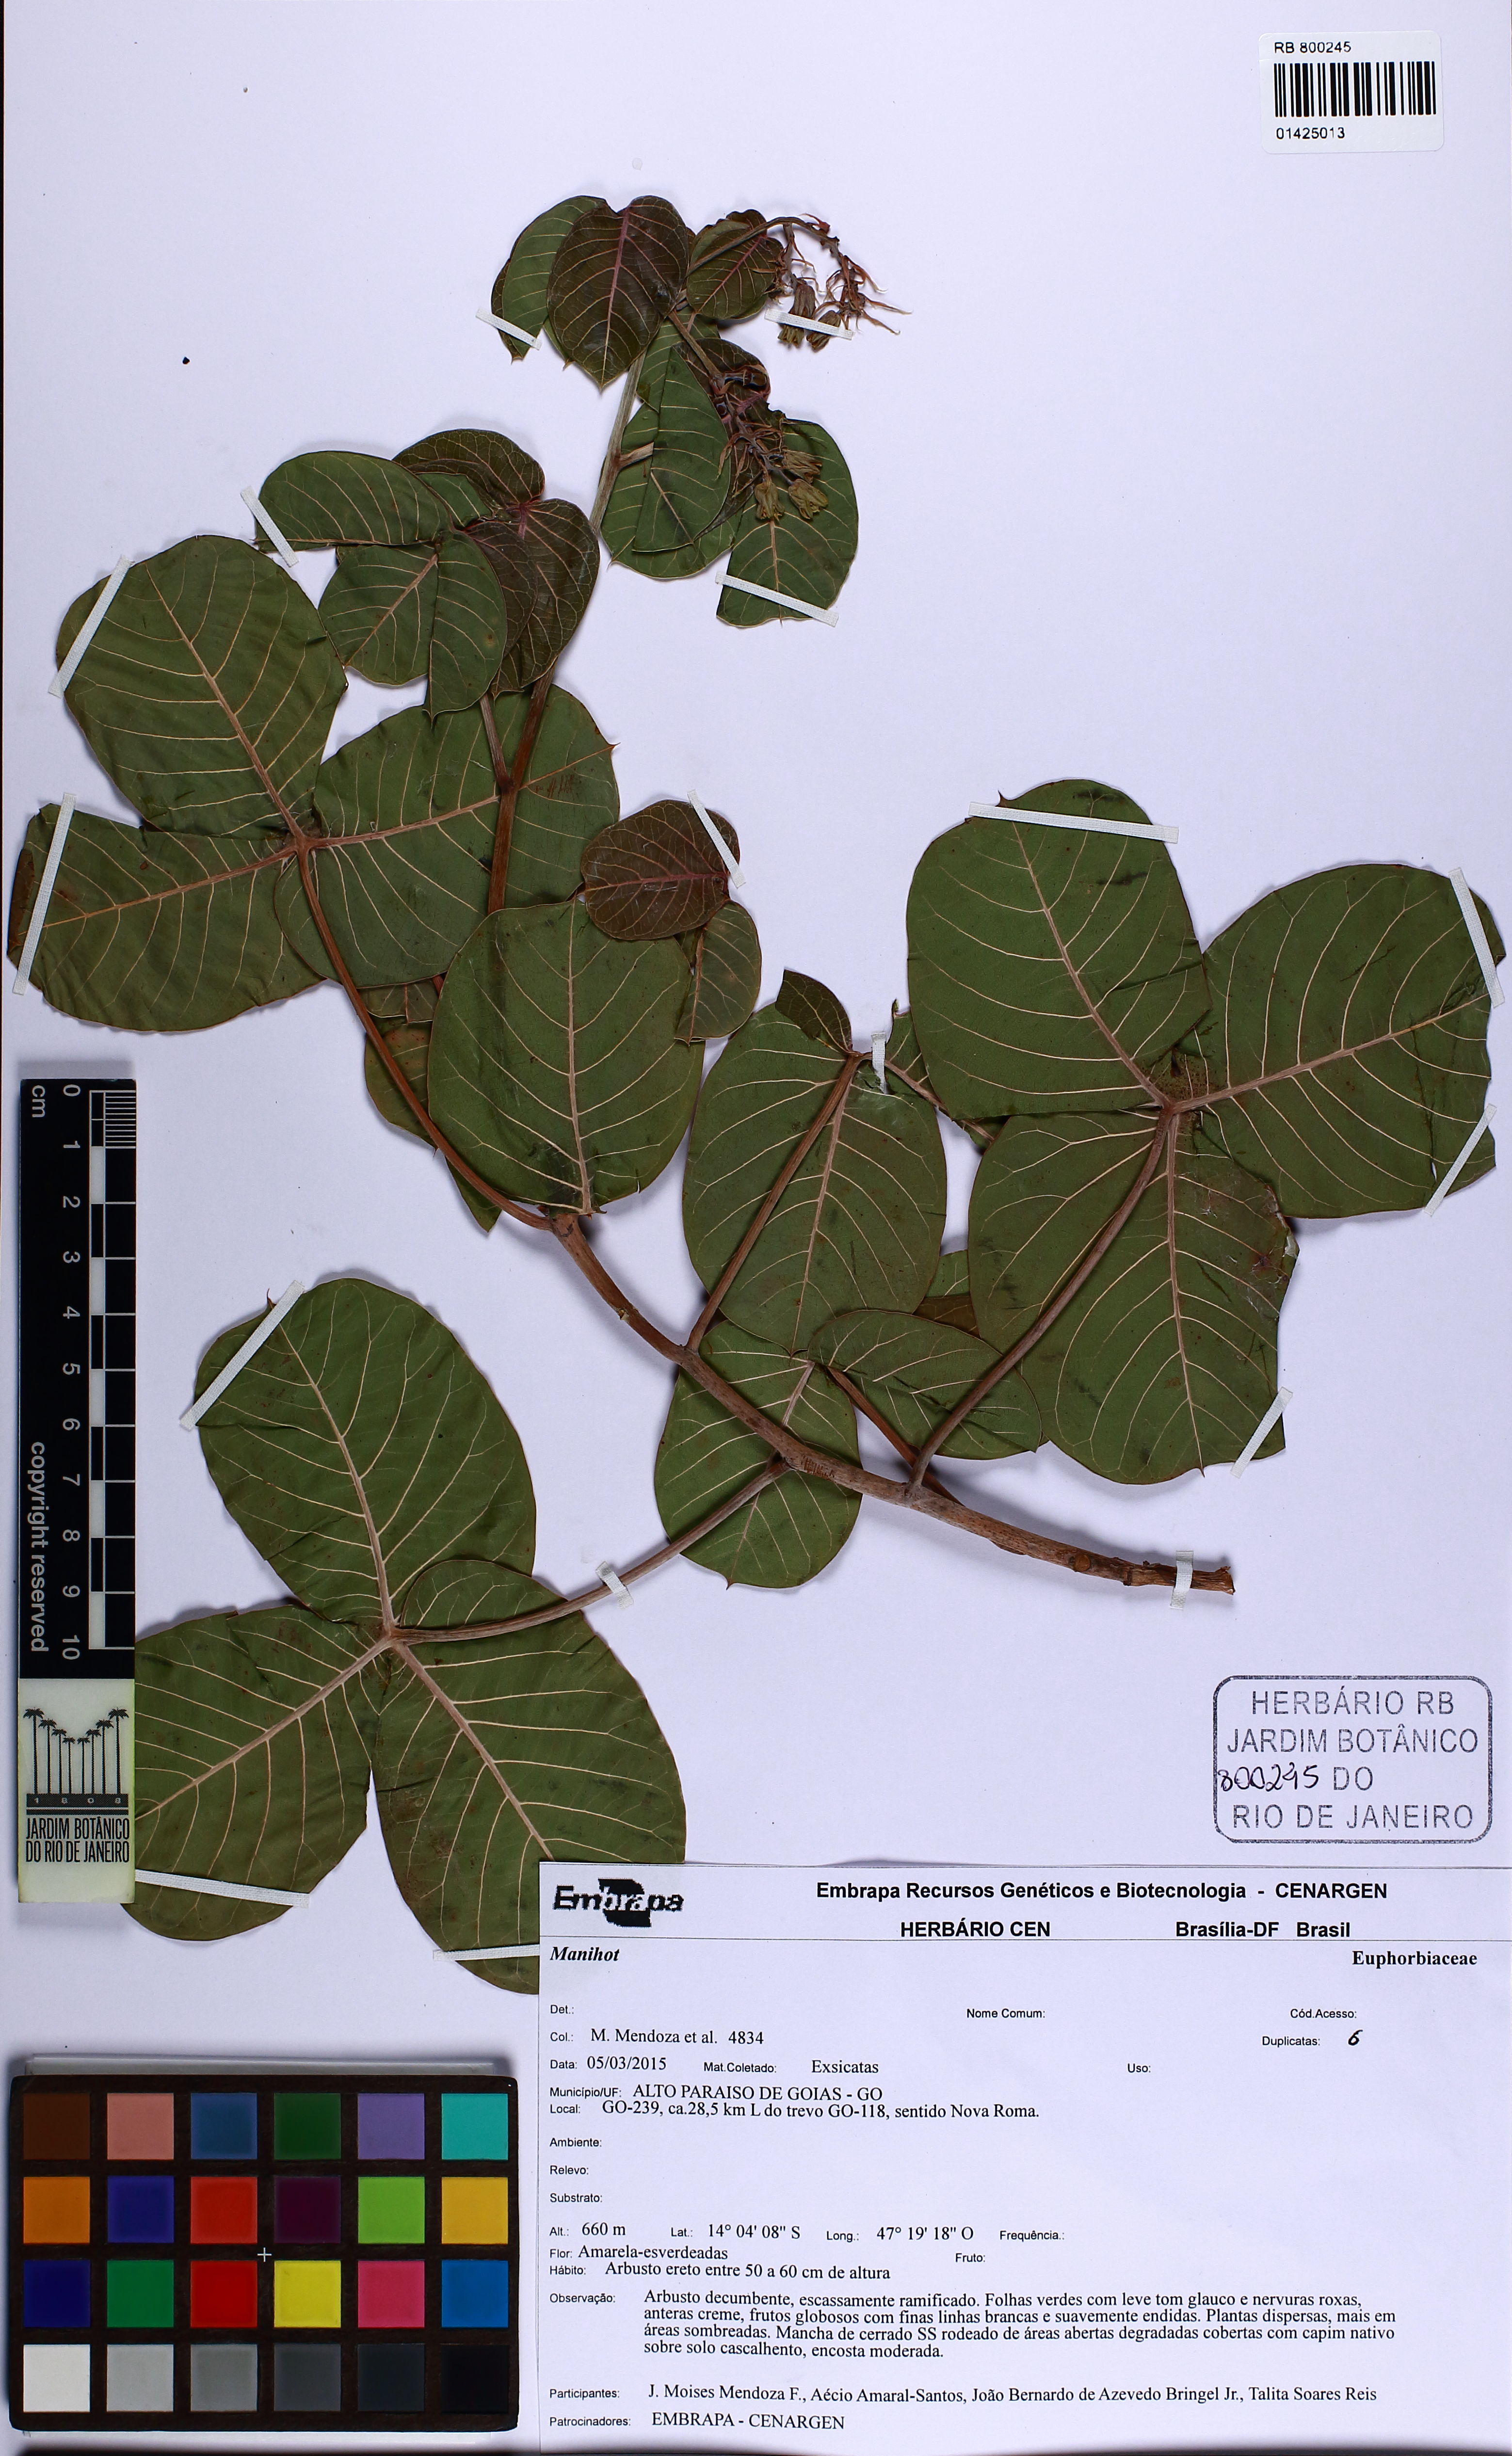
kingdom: Plantae
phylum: Tracheophyta
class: Magnoliopsida
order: Malpighiales
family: Euphorbiaceae
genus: Manihot
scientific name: Manihot
